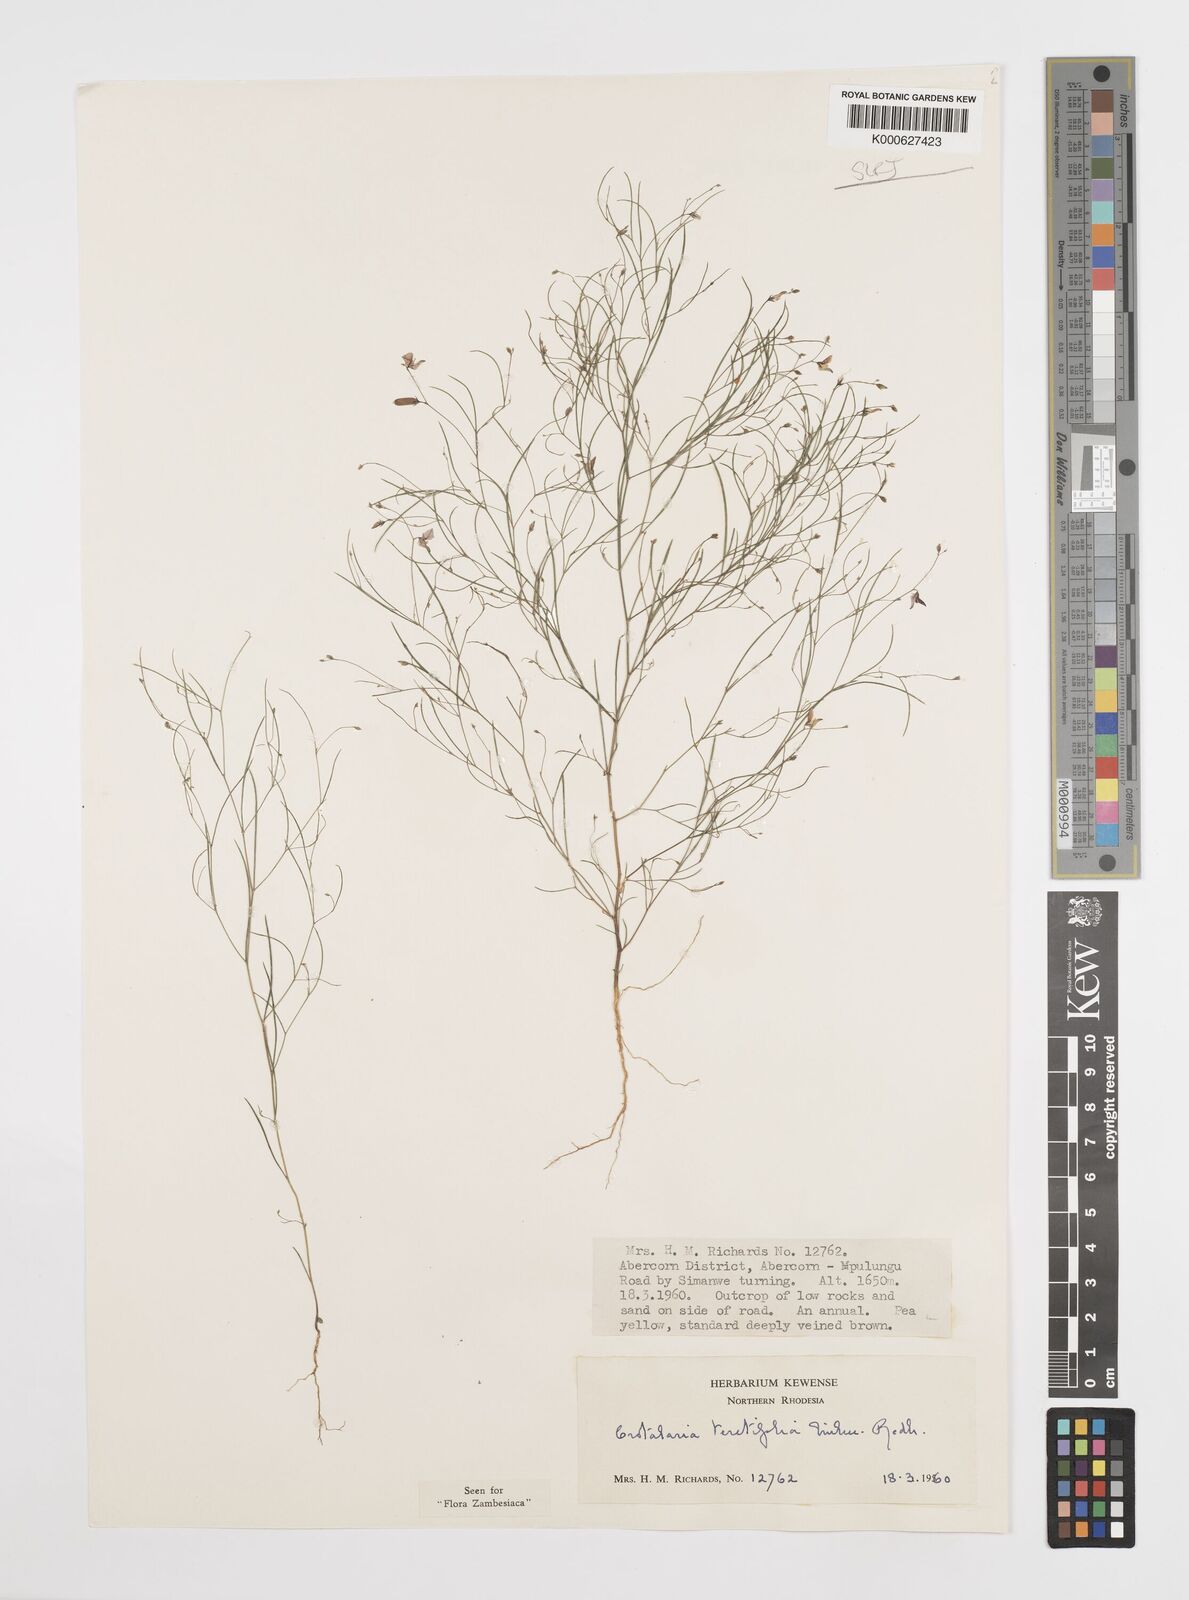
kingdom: Plantae
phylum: Tracheophyta
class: Magnoliopsida
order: Fabales
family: Fabaceae
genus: Crotalaria
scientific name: Crotalaria teretifolia
